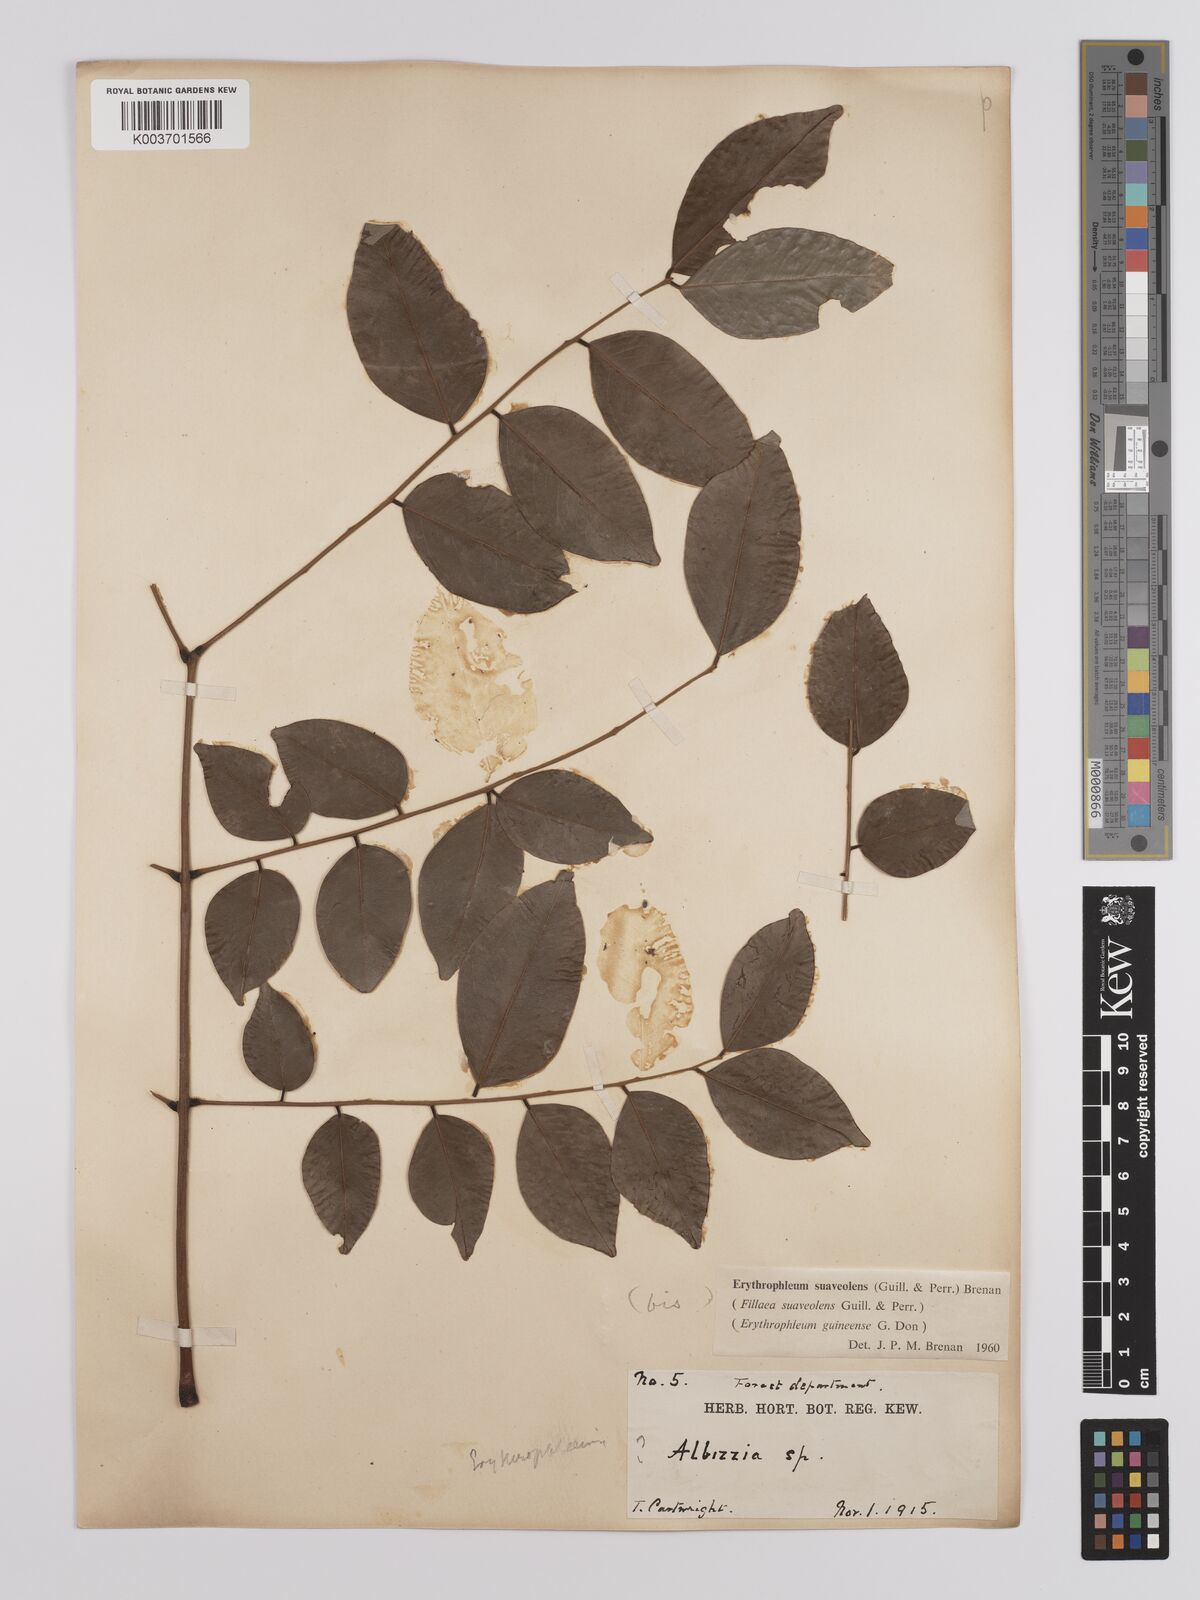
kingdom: Plantae
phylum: Tracheophyta
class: Magnoliopsida
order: Fabales
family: Fabaceae
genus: Erythrophleum
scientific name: Erythrophleum suaveolens
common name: Ordeal tree
